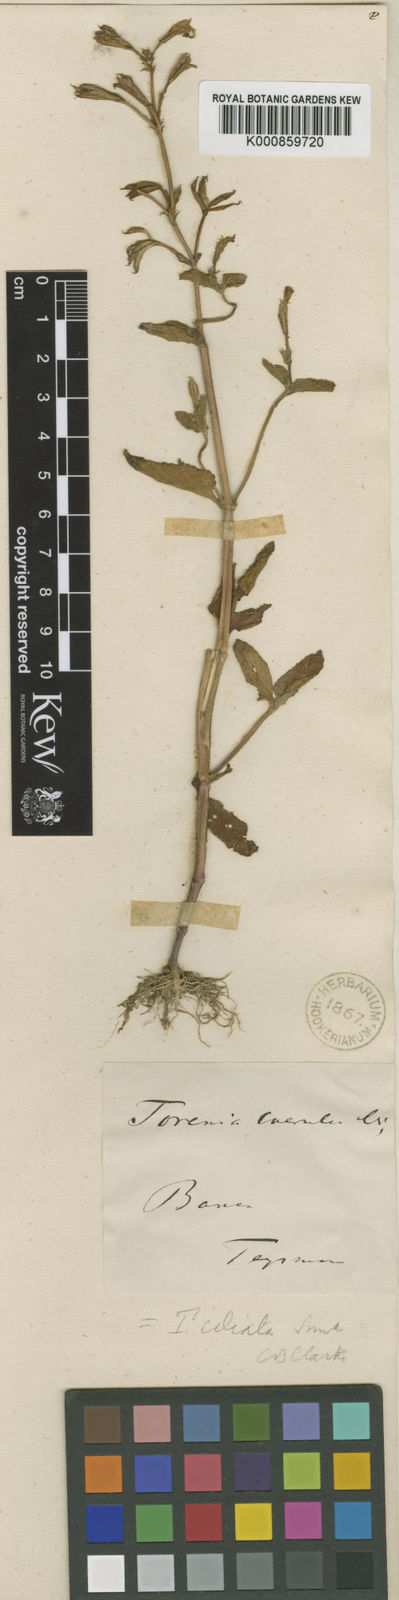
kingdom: Plantae
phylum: Tracheophyta
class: Magnoliopsida
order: Lamiales
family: Linderniaceae
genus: Torenia
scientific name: Torenia ciliaris
